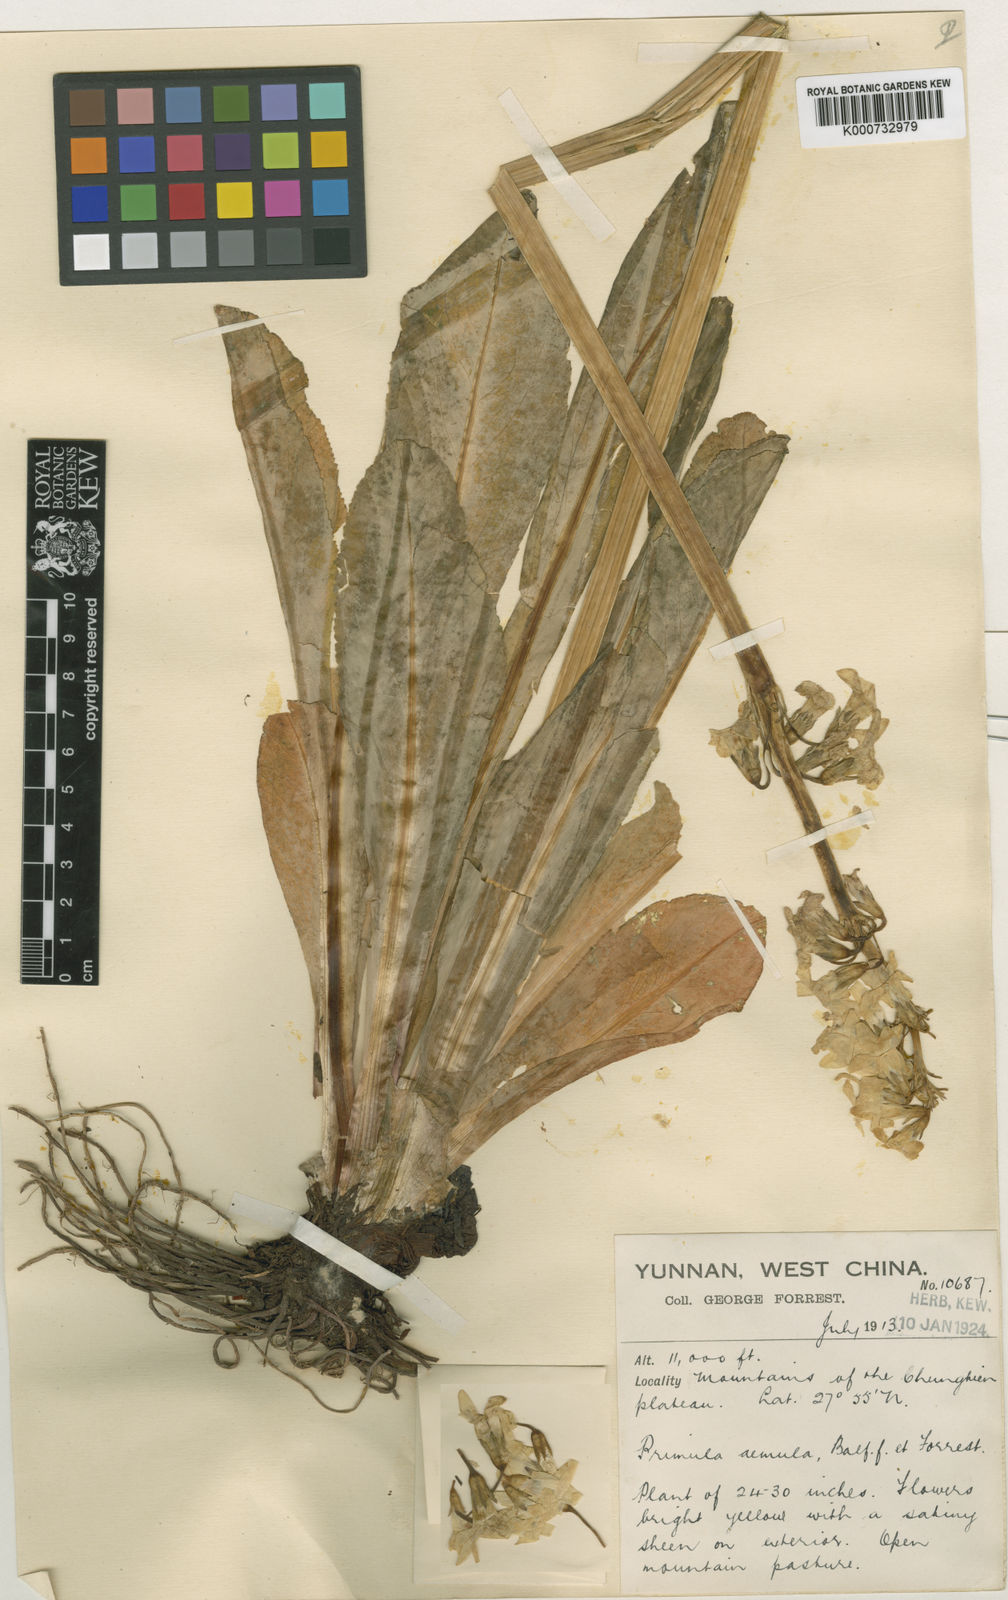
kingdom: Plantae
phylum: Tracheophyta
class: Magnoliopsida
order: Ericales
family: Primulaceae
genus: Primula
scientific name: Primula aemula
